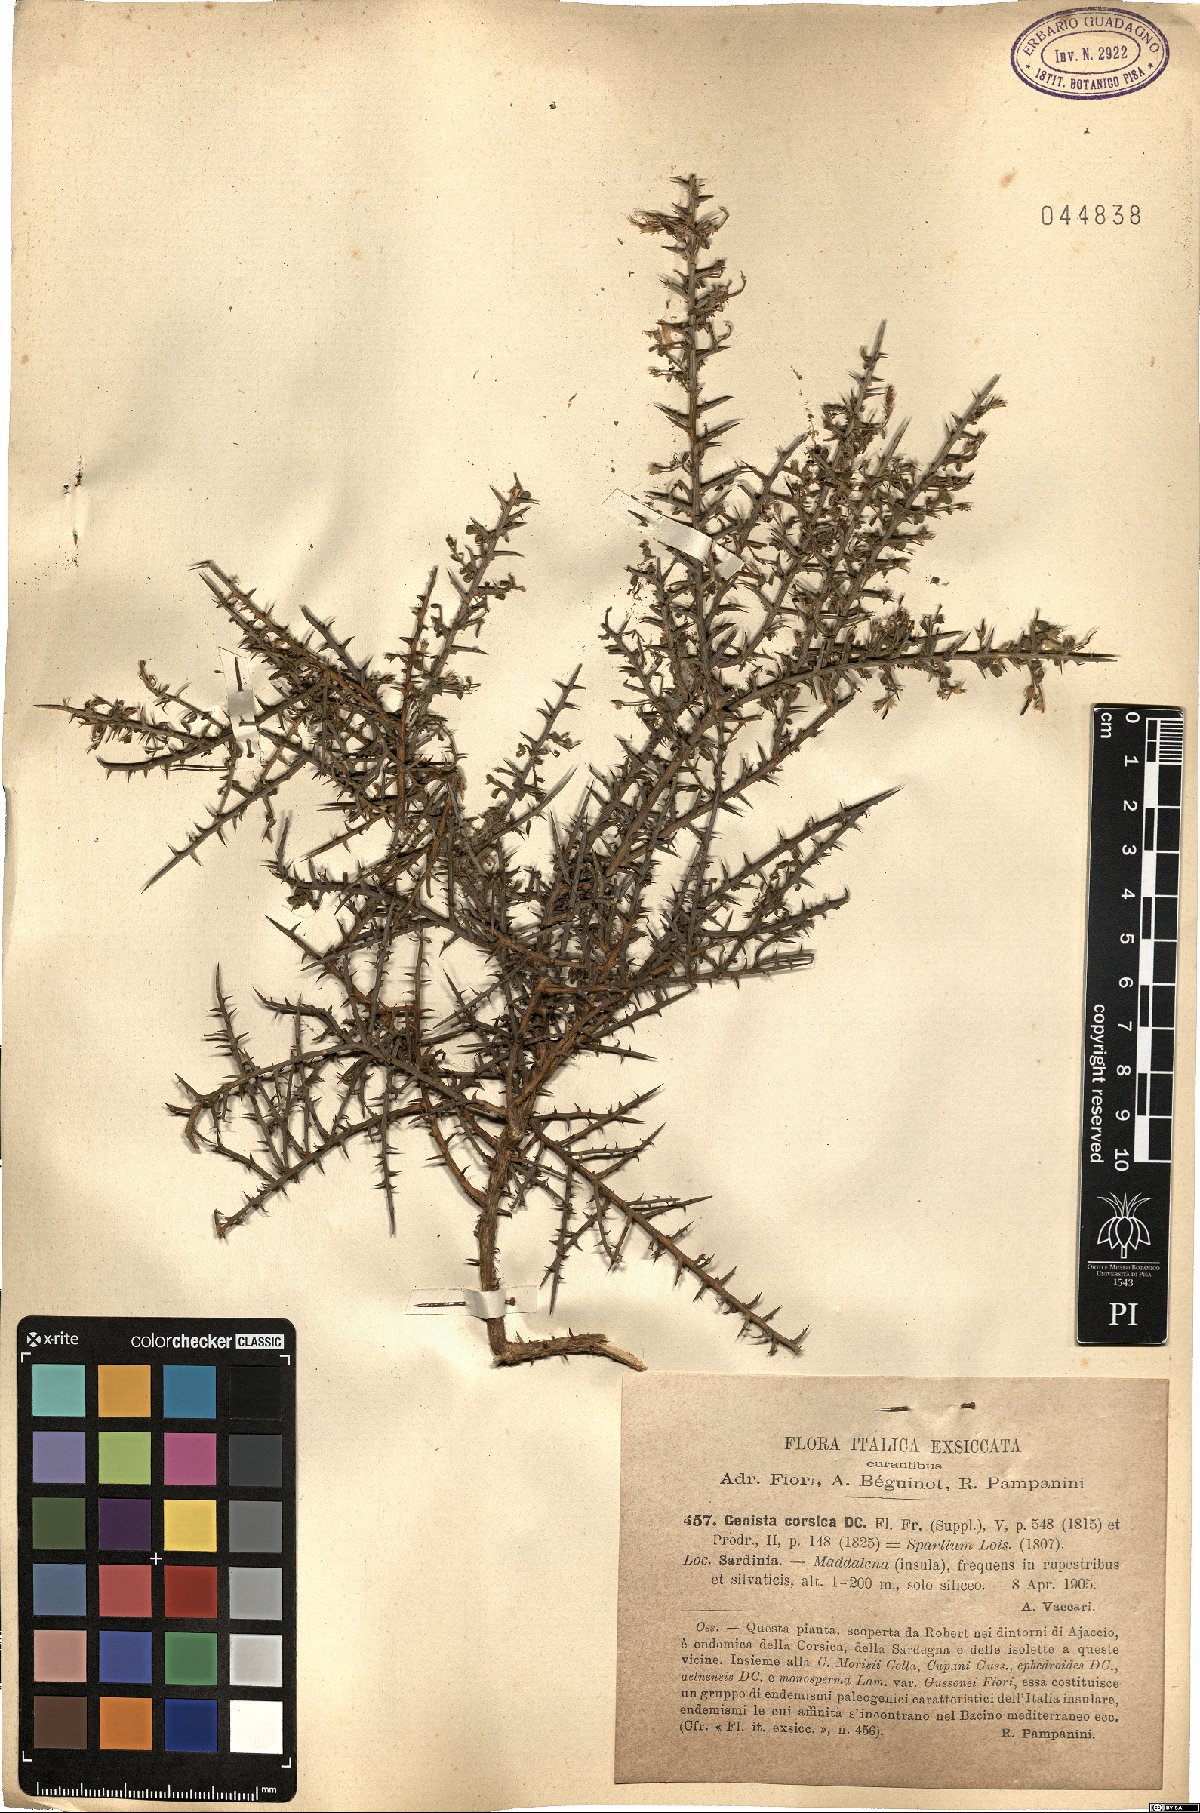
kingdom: Plantae
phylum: Tracheophyta
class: Magnoliopsida
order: Fabales
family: Fabaceae
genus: Genista
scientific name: Genista corsica
